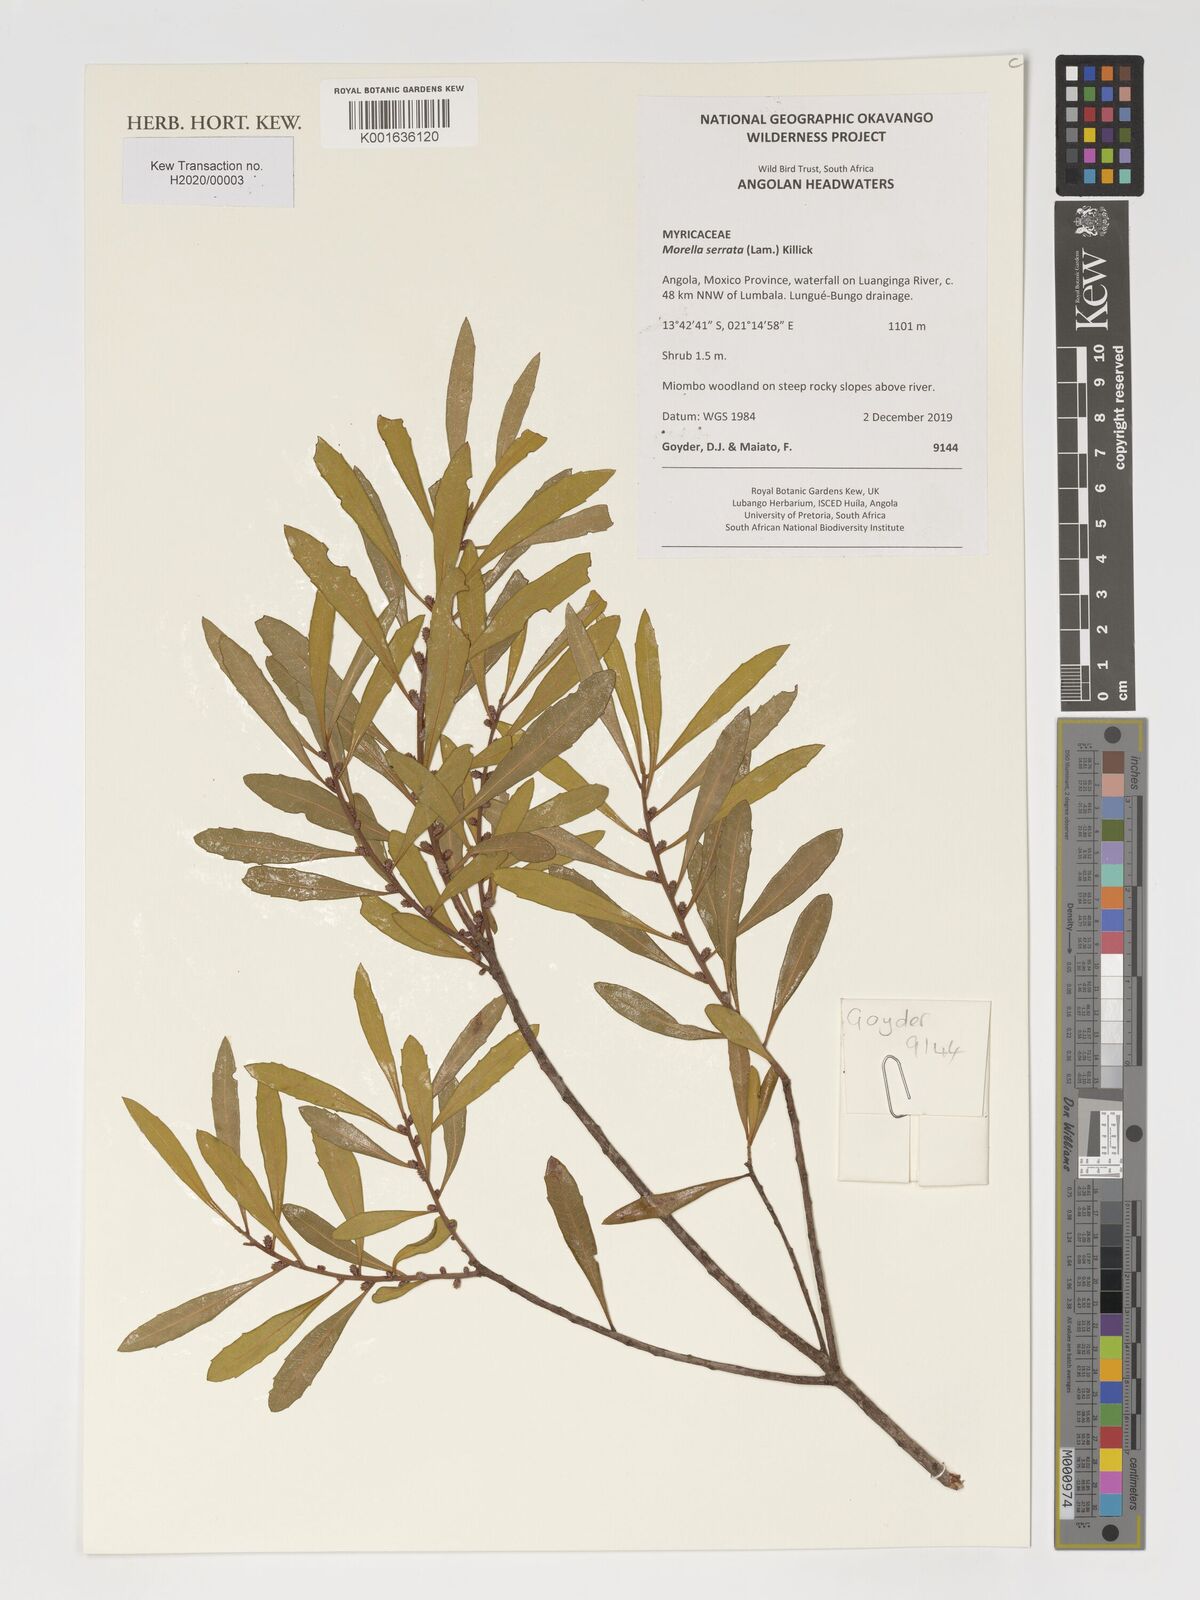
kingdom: Plantae
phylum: Tracheophyta
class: Magnoliopsida
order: Fagales
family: Myricaceae
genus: Morella
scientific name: Morella serrata
